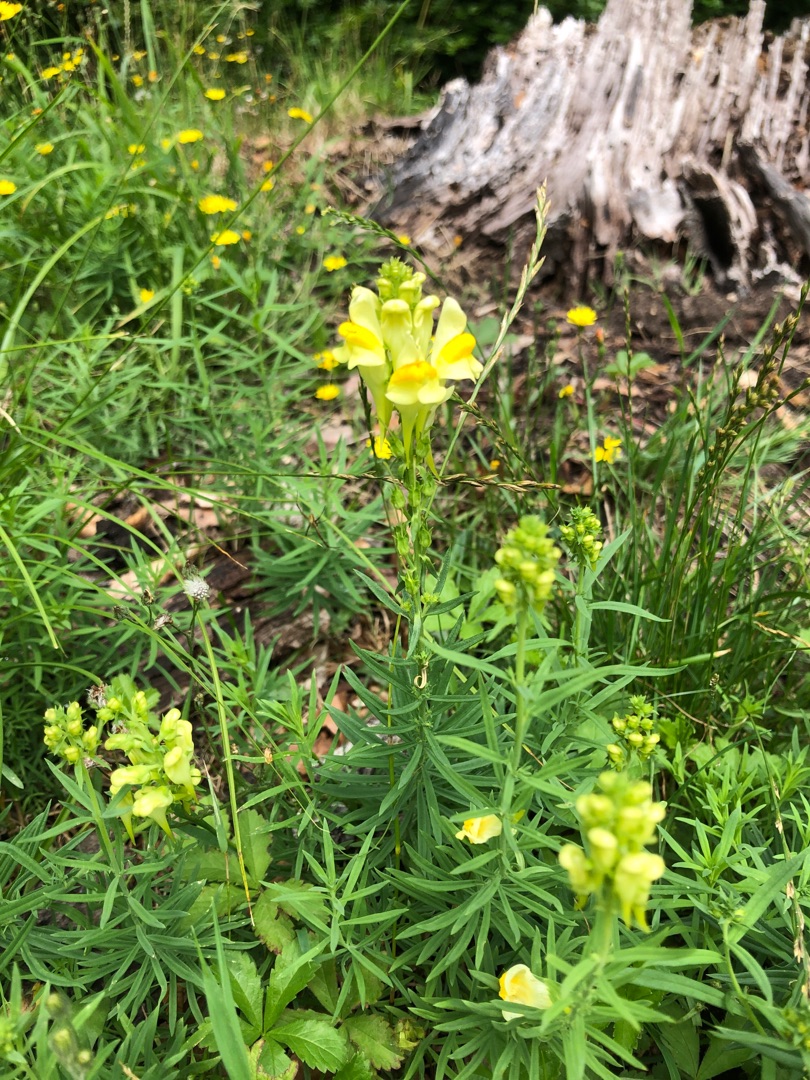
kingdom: Plantae
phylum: Tracheophyta
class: Magnoliopsida
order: Lamiales
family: Plantaginaceae
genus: Linaria
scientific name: Linaria vulgaris
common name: Almindelig torskemund
